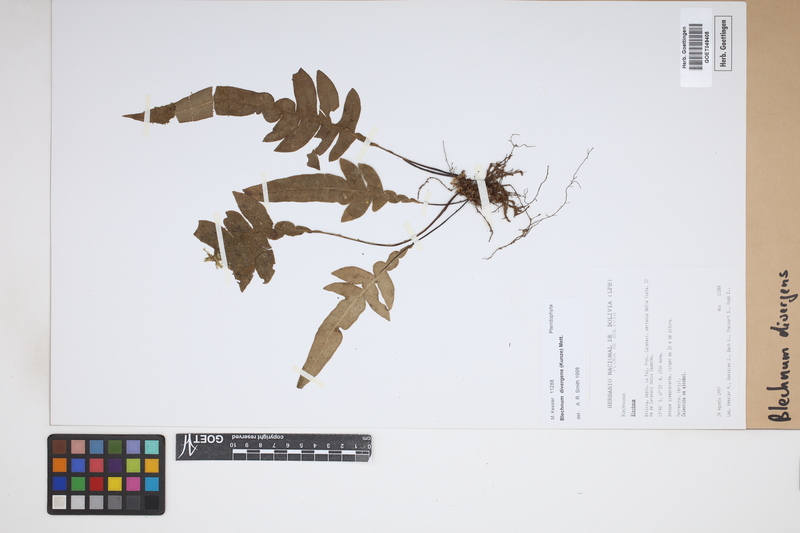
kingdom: Plantae
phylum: Tracheophyta
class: Polypodiopsida
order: Polypodiales
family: Blechnaceae
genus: Austroblechnum
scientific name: Austroblechnum divergens
